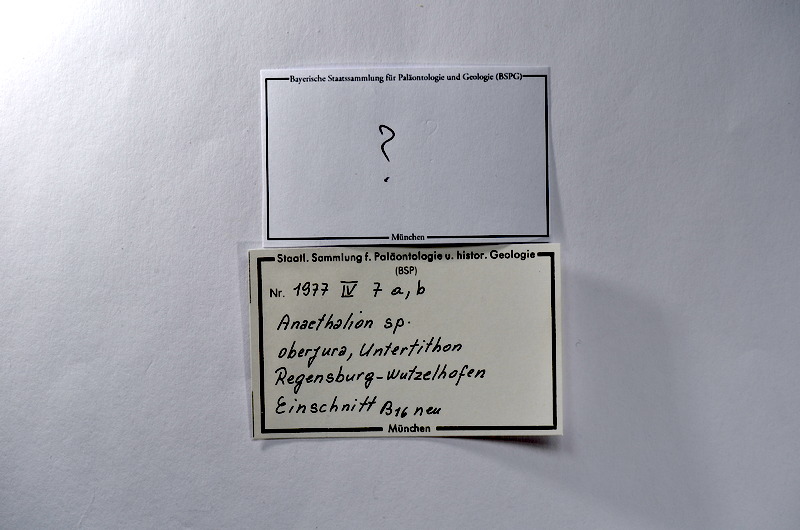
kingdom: Animalia
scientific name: Animalia
